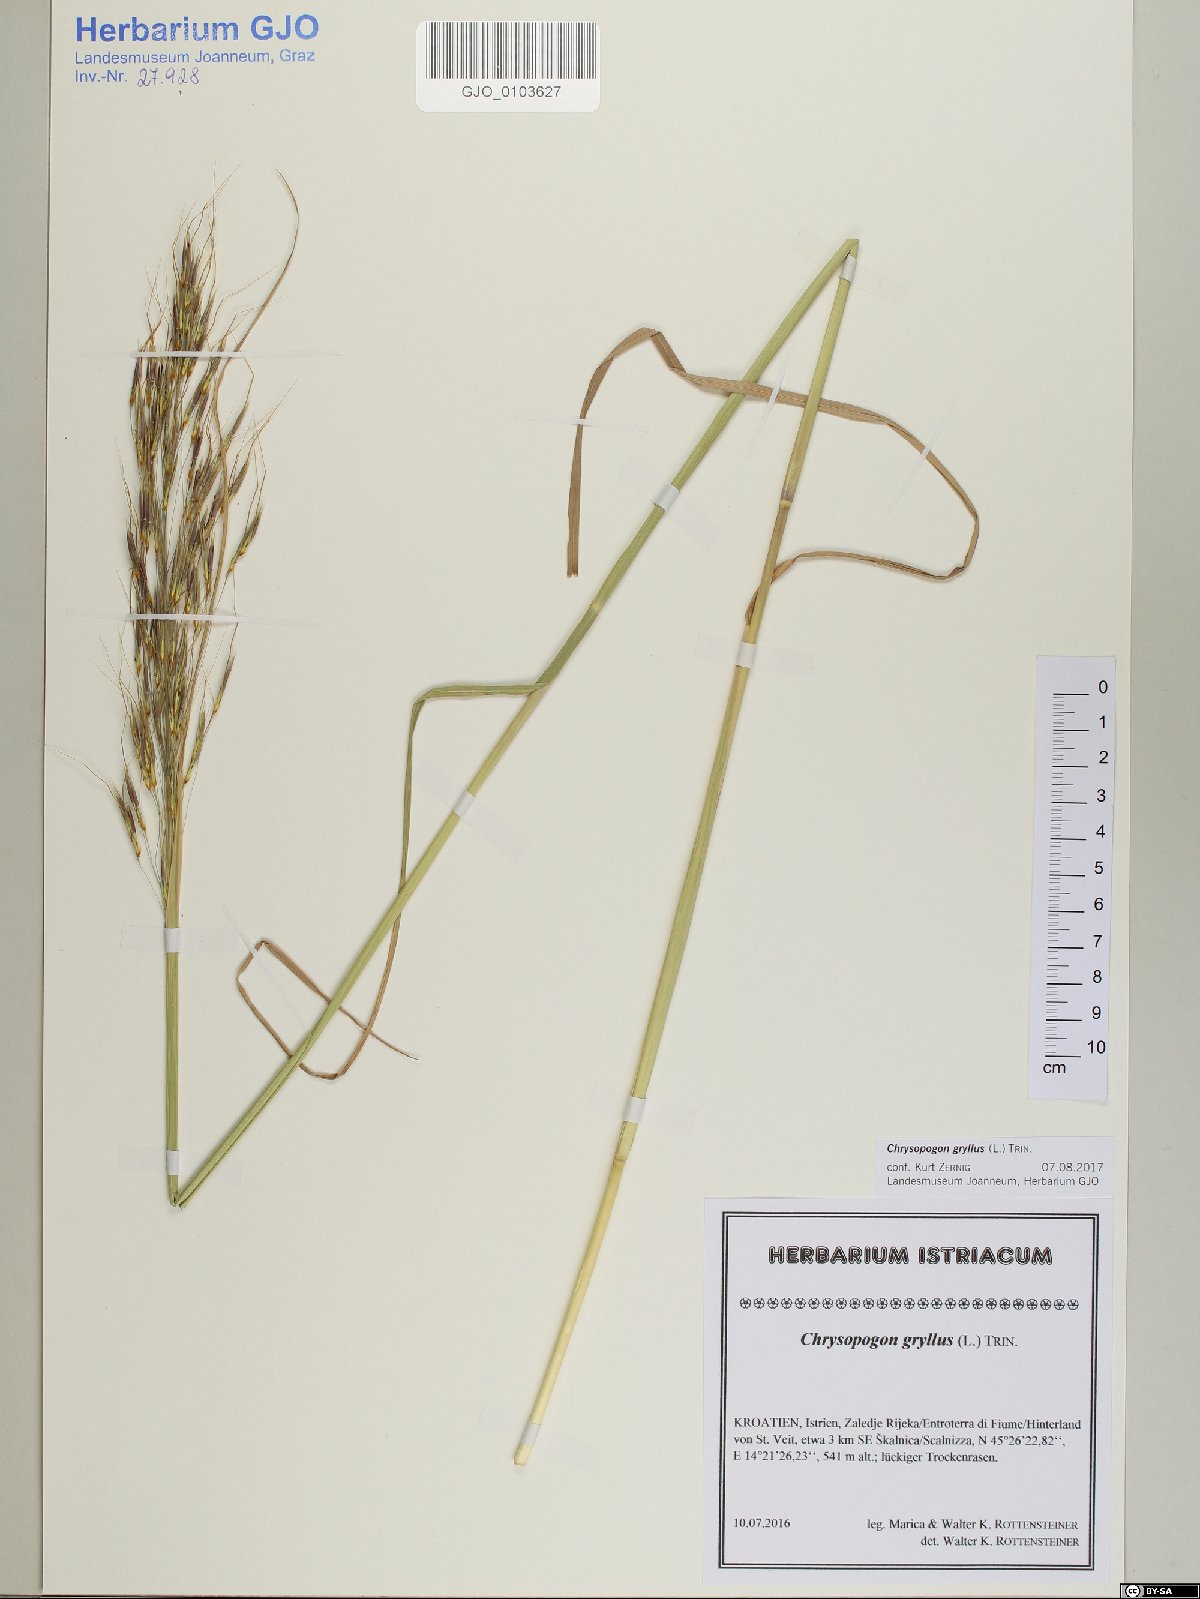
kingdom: Plantae
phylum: Tracheophyta
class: Liliopsida
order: Poales
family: Poaceae
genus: Chrysopogon
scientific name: Chrysopogon gryllus
